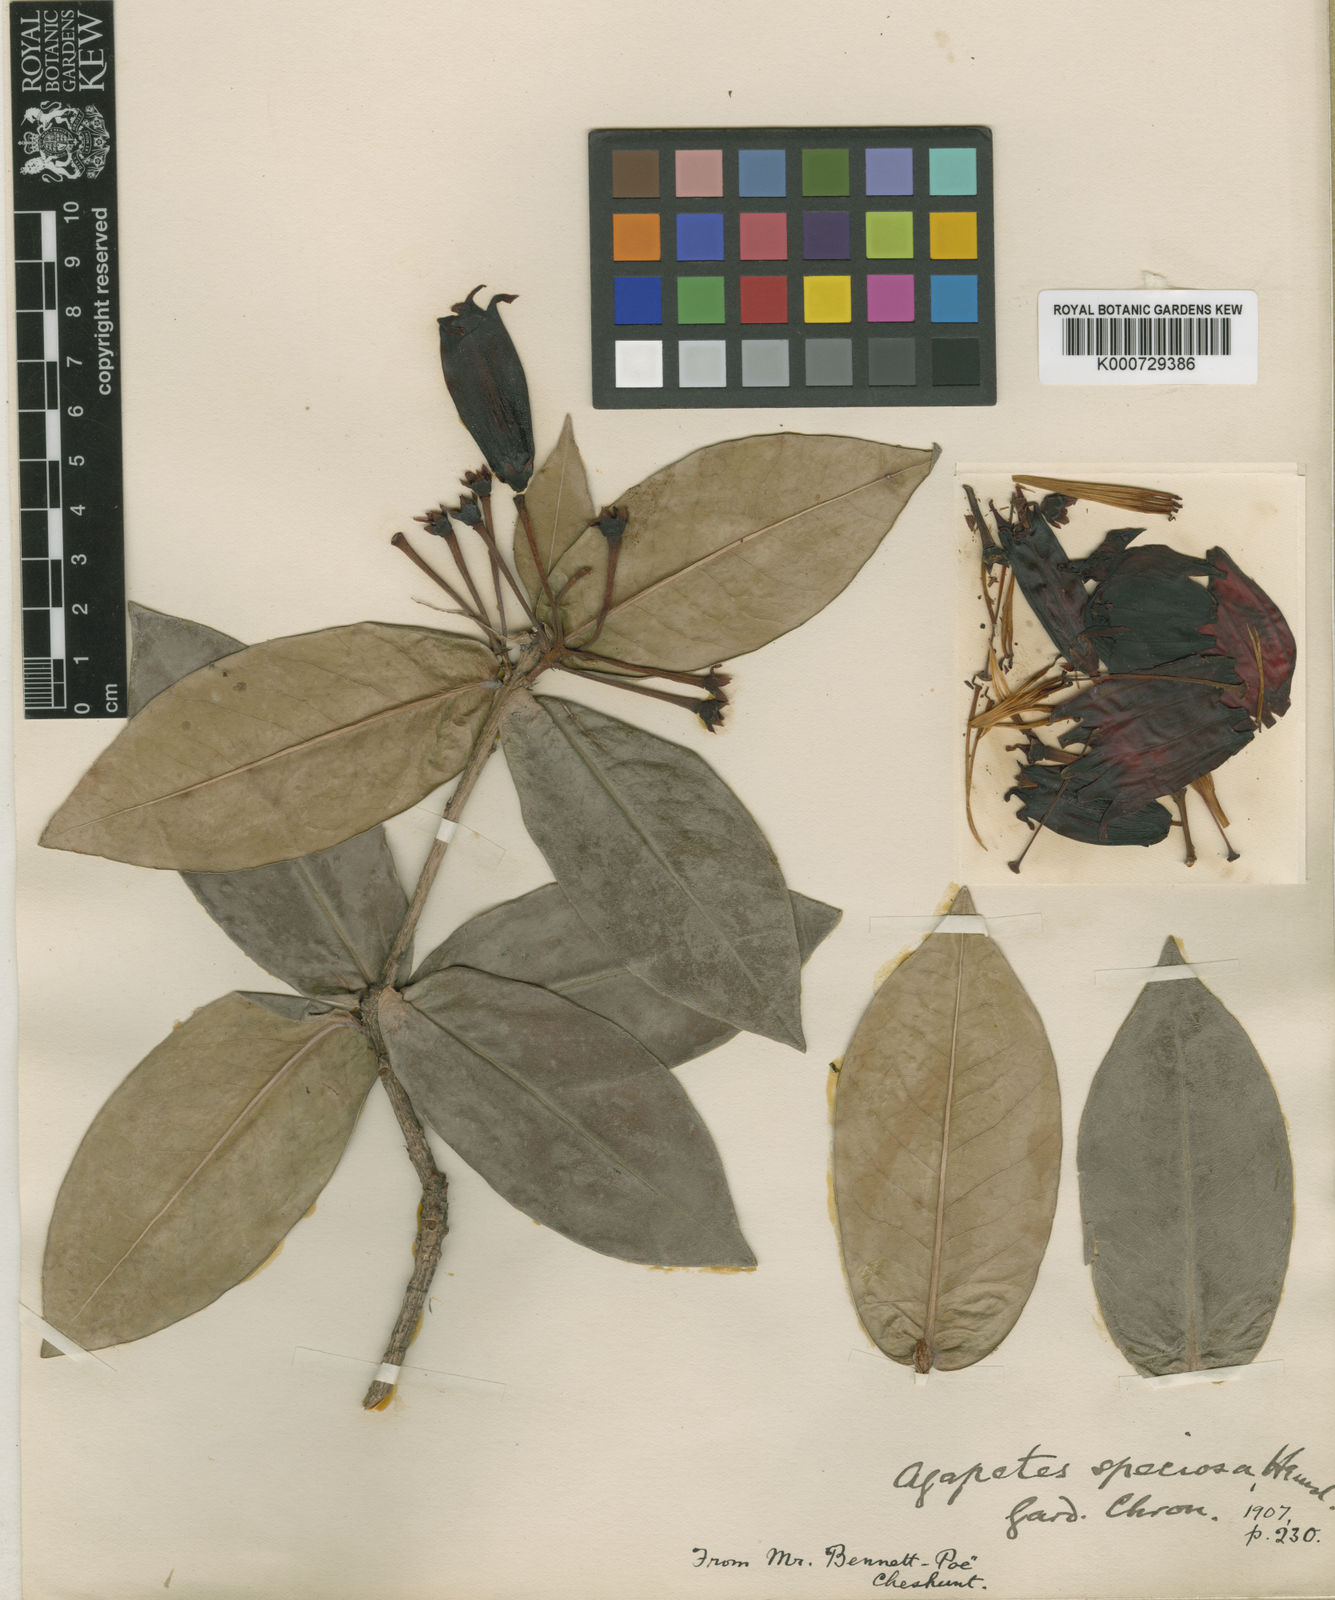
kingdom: Plantae
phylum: Tracheophyta
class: Magnoliopsida
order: Ericales
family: Ericaceae
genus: Agapetes
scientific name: Agapetes variegata
